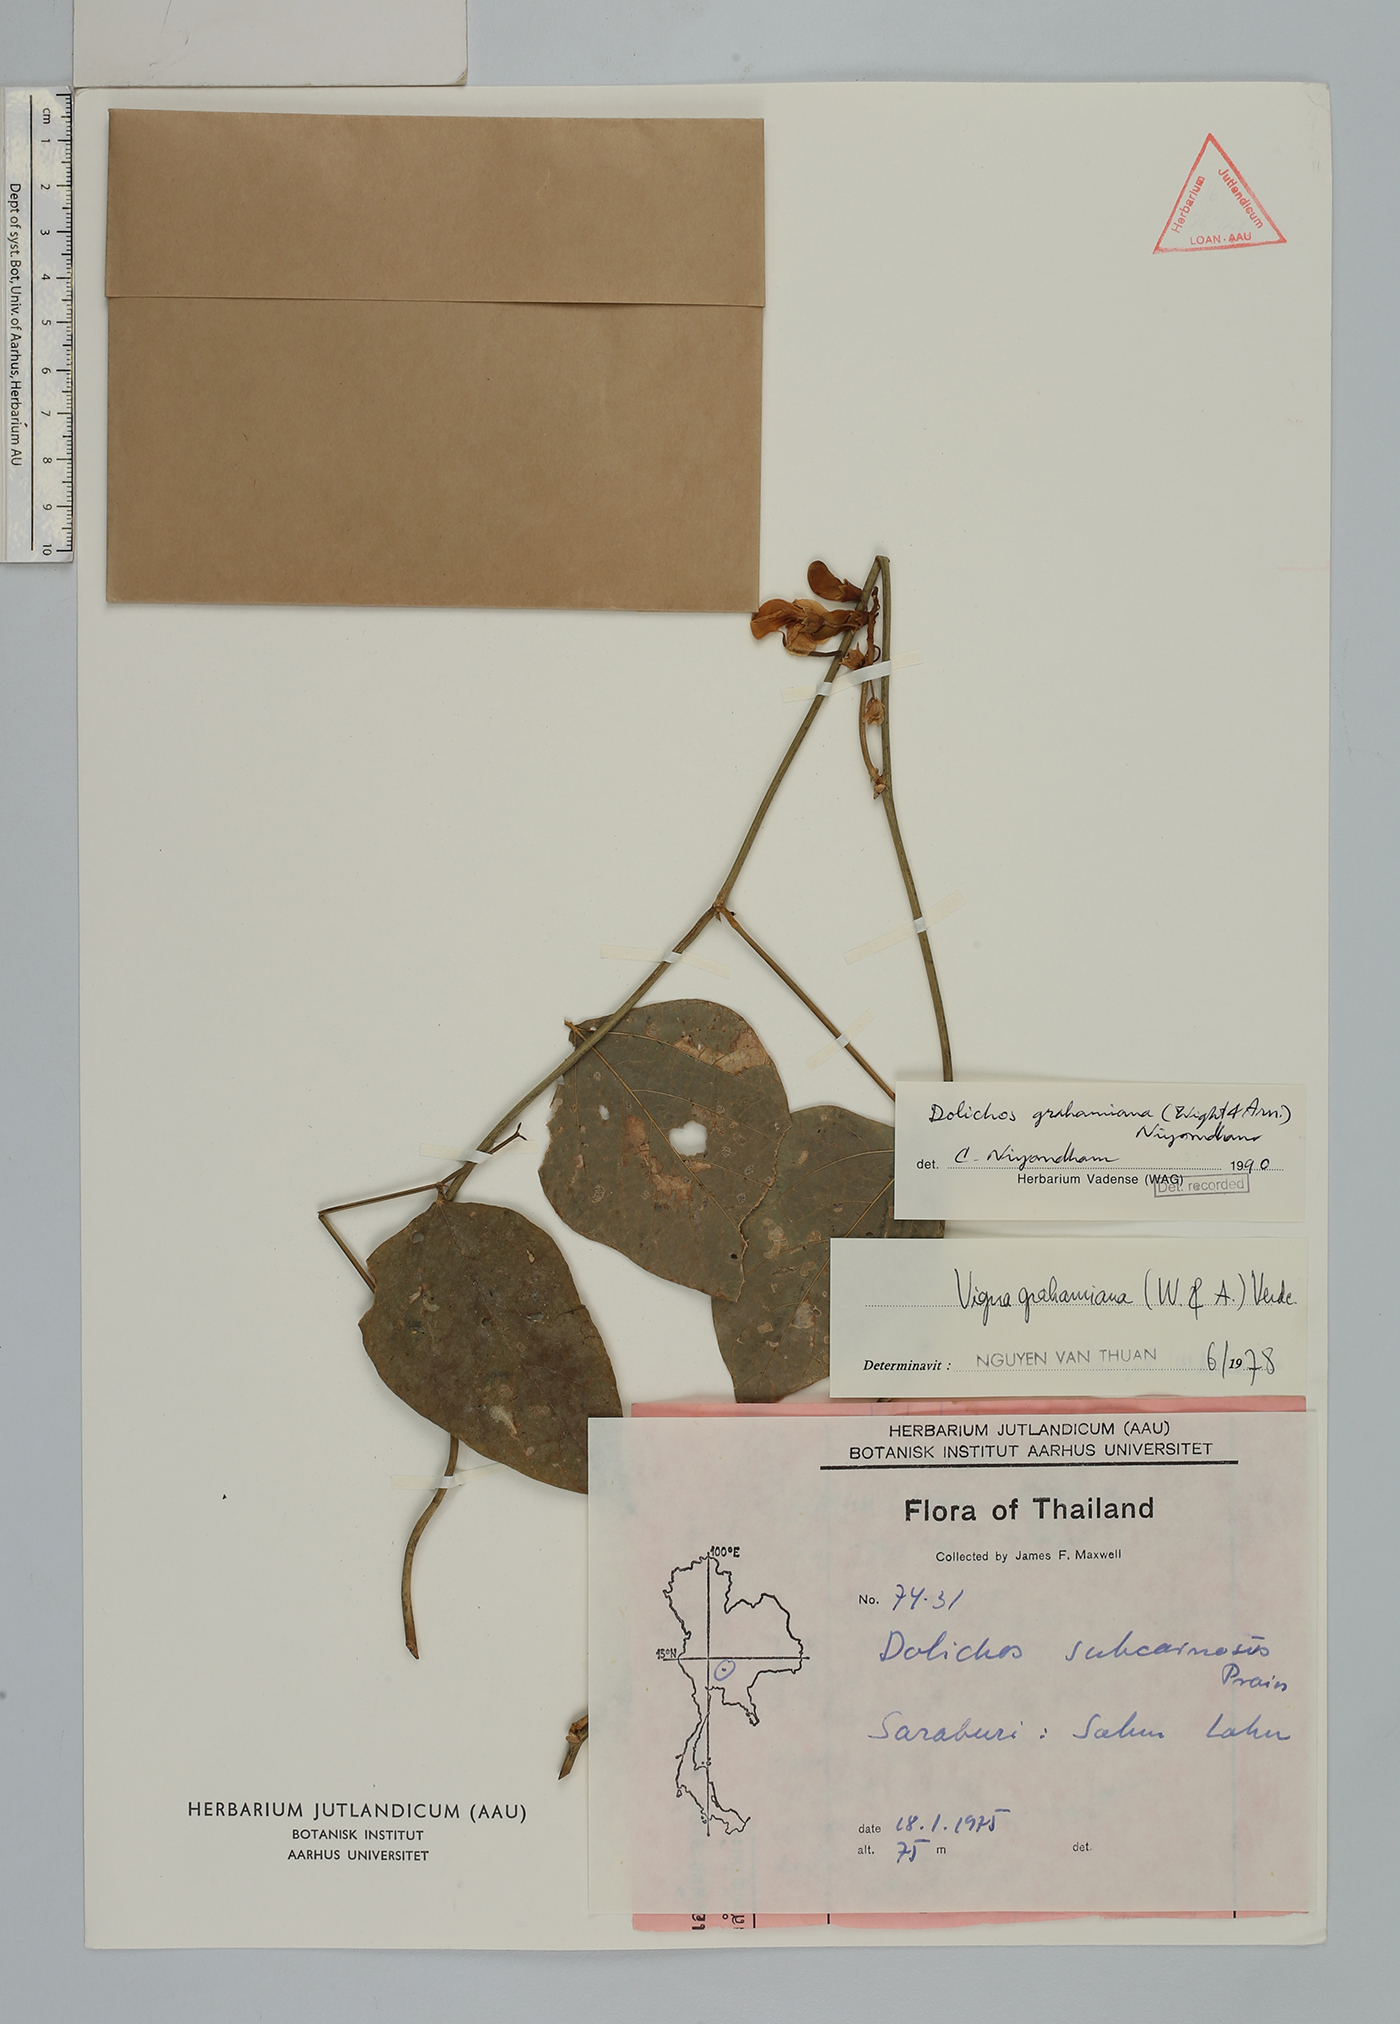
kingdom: Plantae
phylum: Tracheophyta
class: Magnoliopsida
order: Fabales
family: Fabaceae
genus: Wajira
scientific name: Wajira grahamiana
